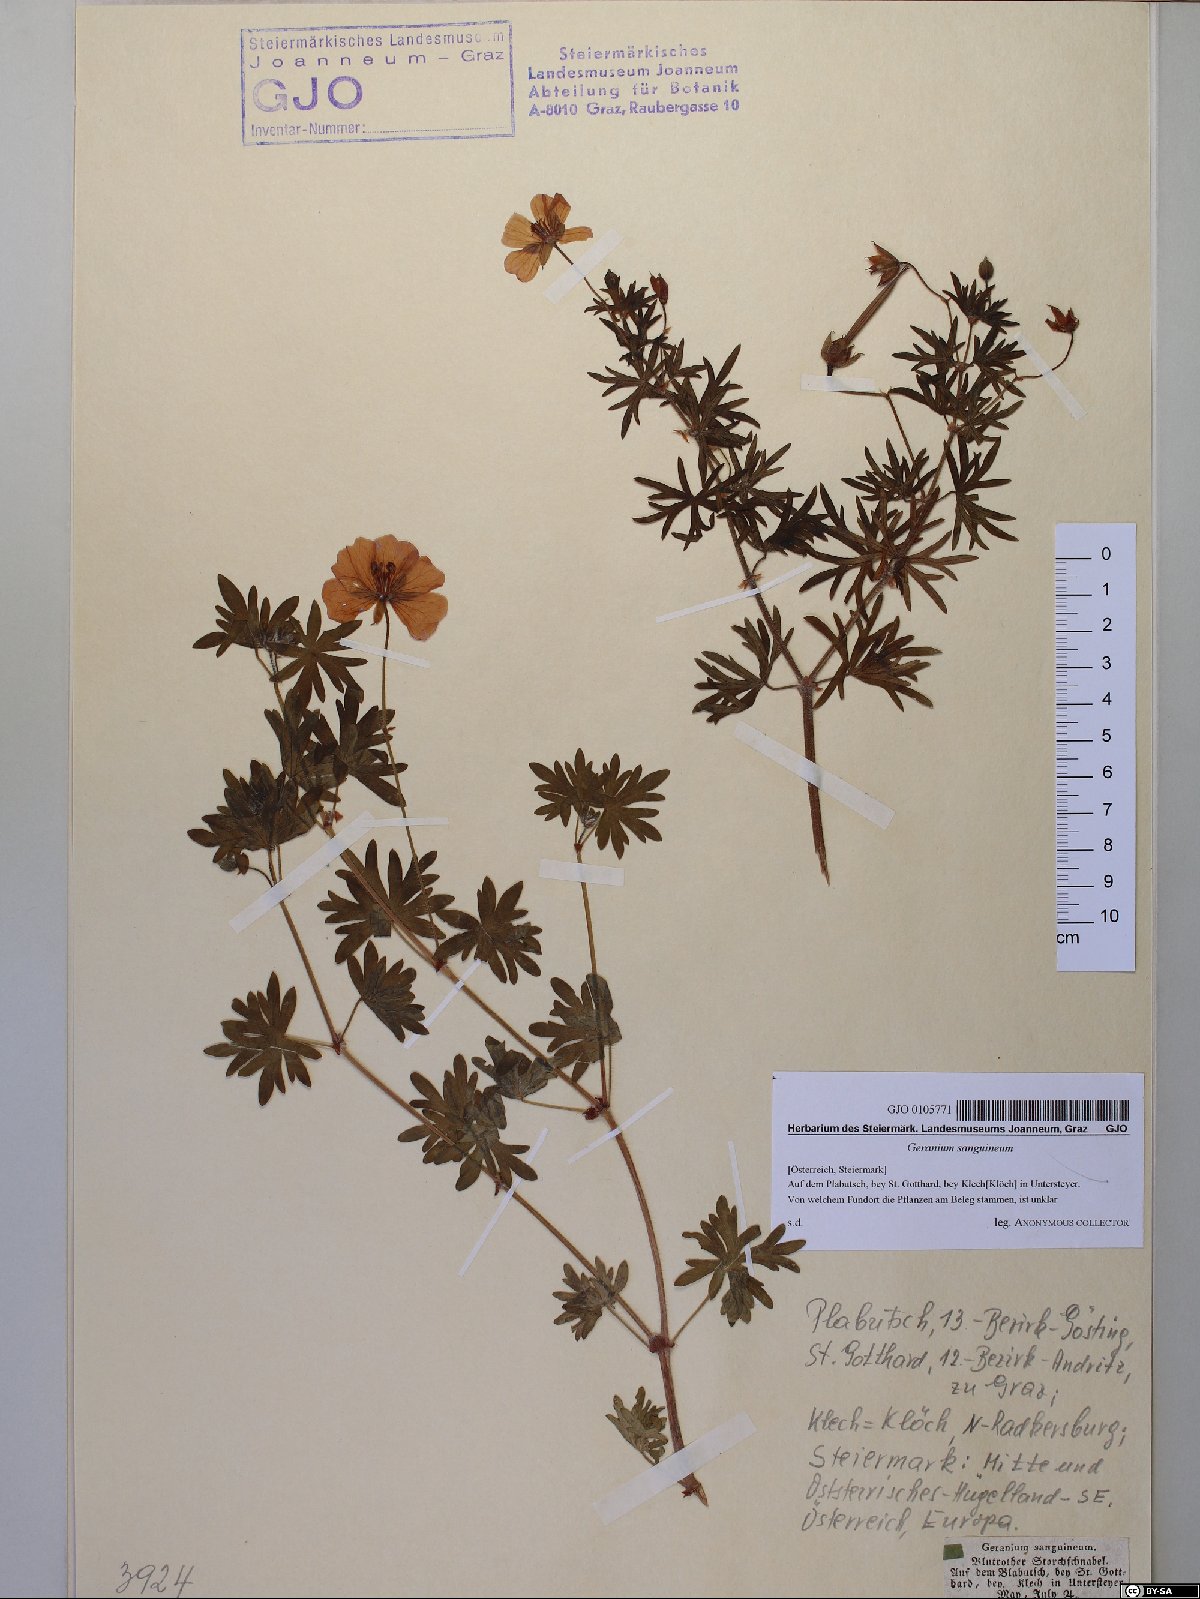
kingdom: Plantae
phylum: Tracheophyta
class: Magnoliopsida
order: Geraniales
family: Geraniaceae
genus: Geranium
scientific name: Geranium sanguineum
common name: Bloody crane's-bill
